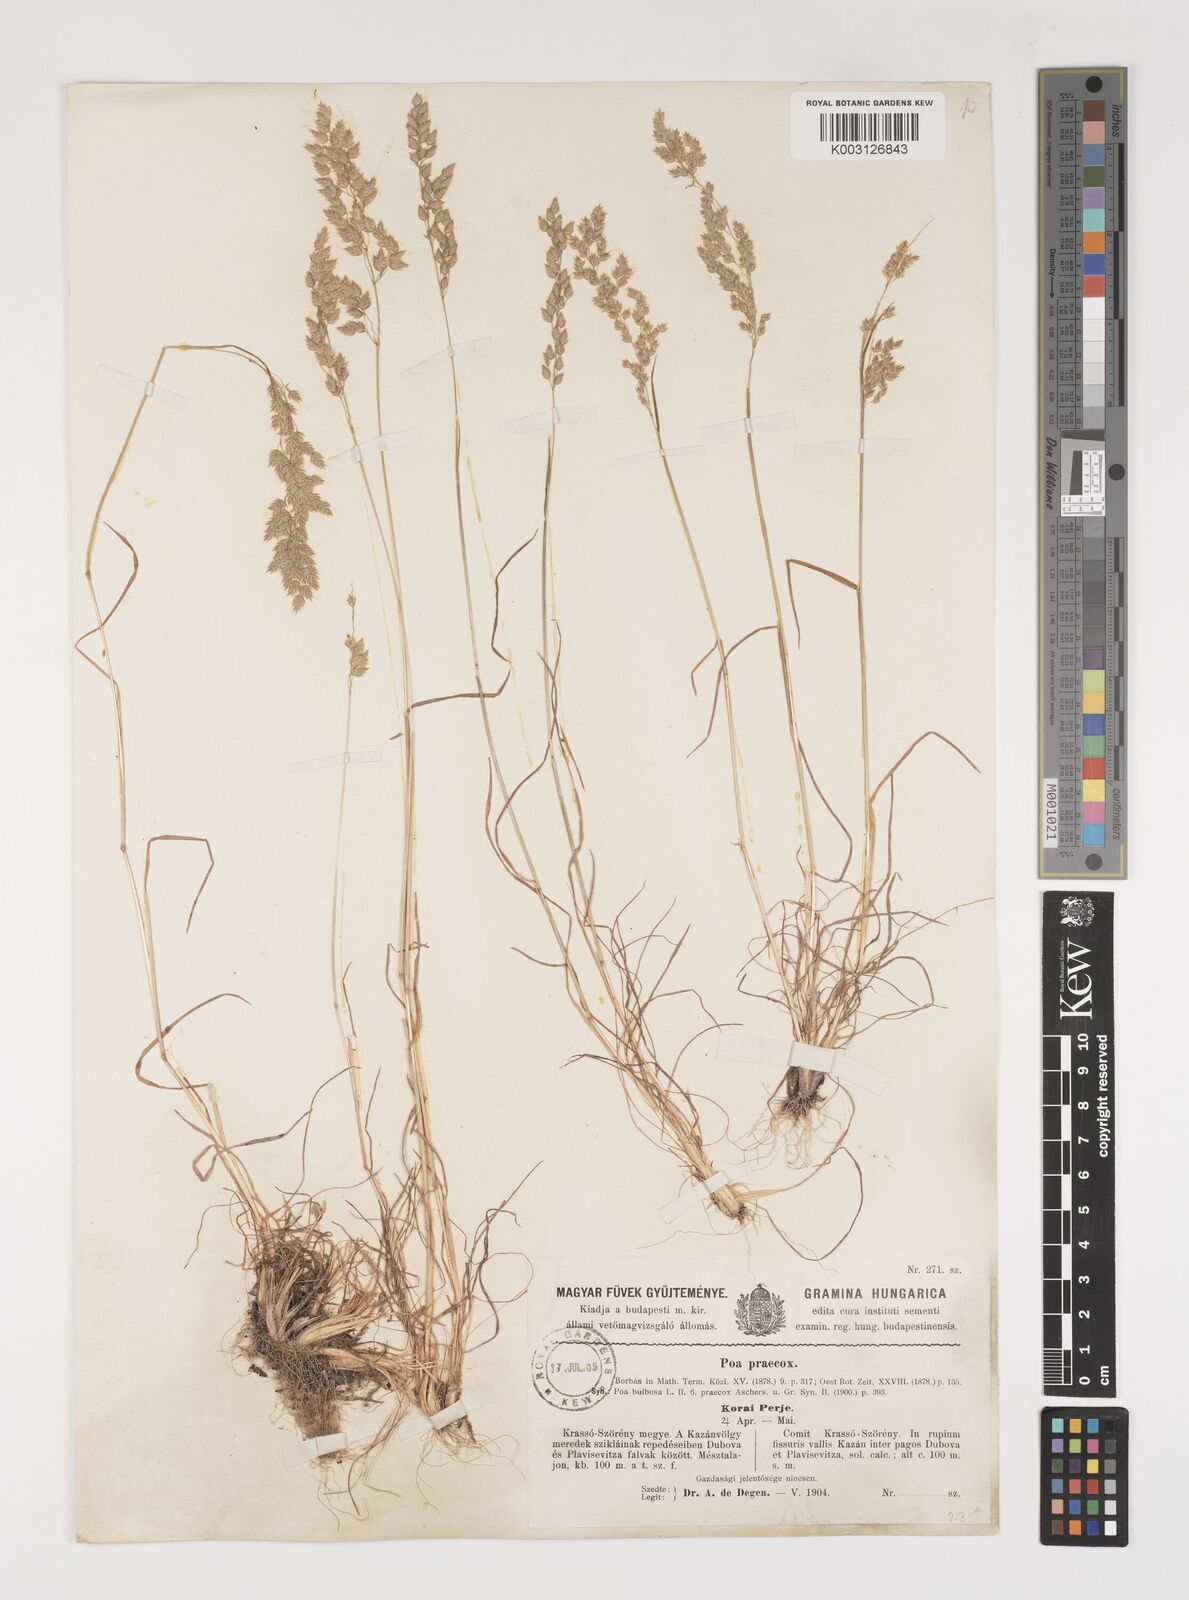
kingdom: Plantae
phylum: Tracheophyta
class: Liliopsida
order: Poales
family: Poaceae
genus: Poa
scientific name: Poa bulbosa
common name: Bulbous bluegrass
